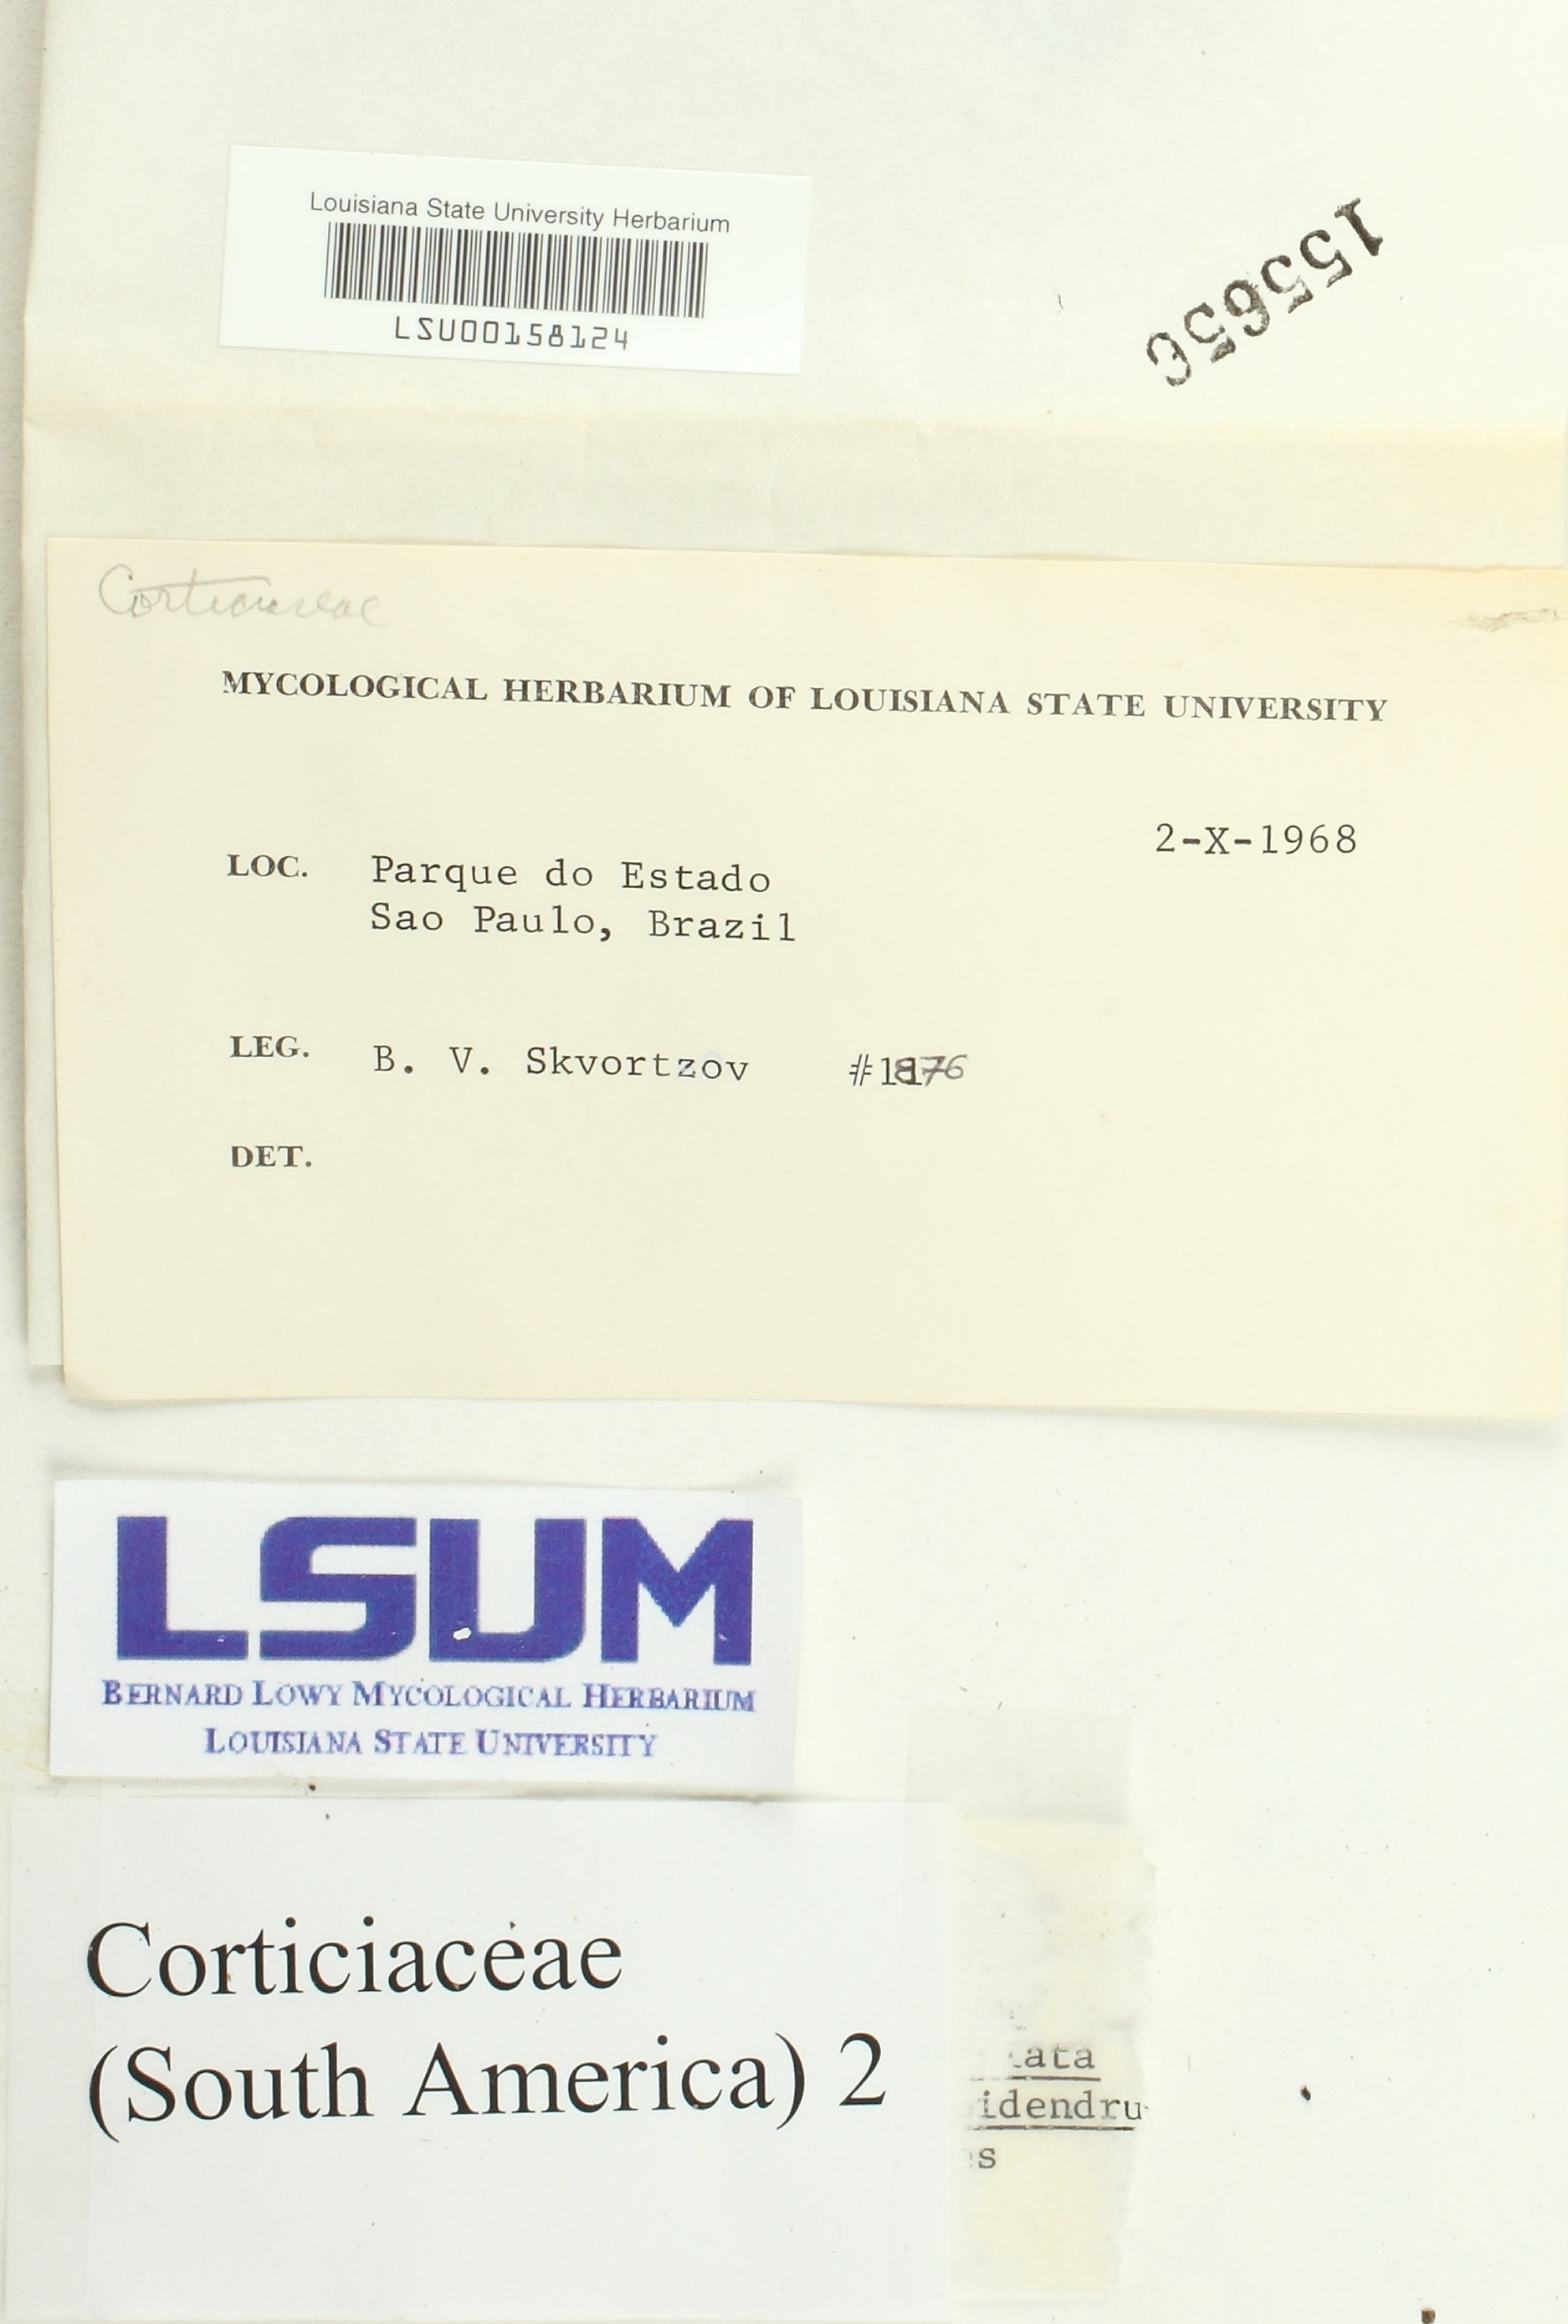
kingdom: Fungi
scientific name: Fungi
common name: Fungi
